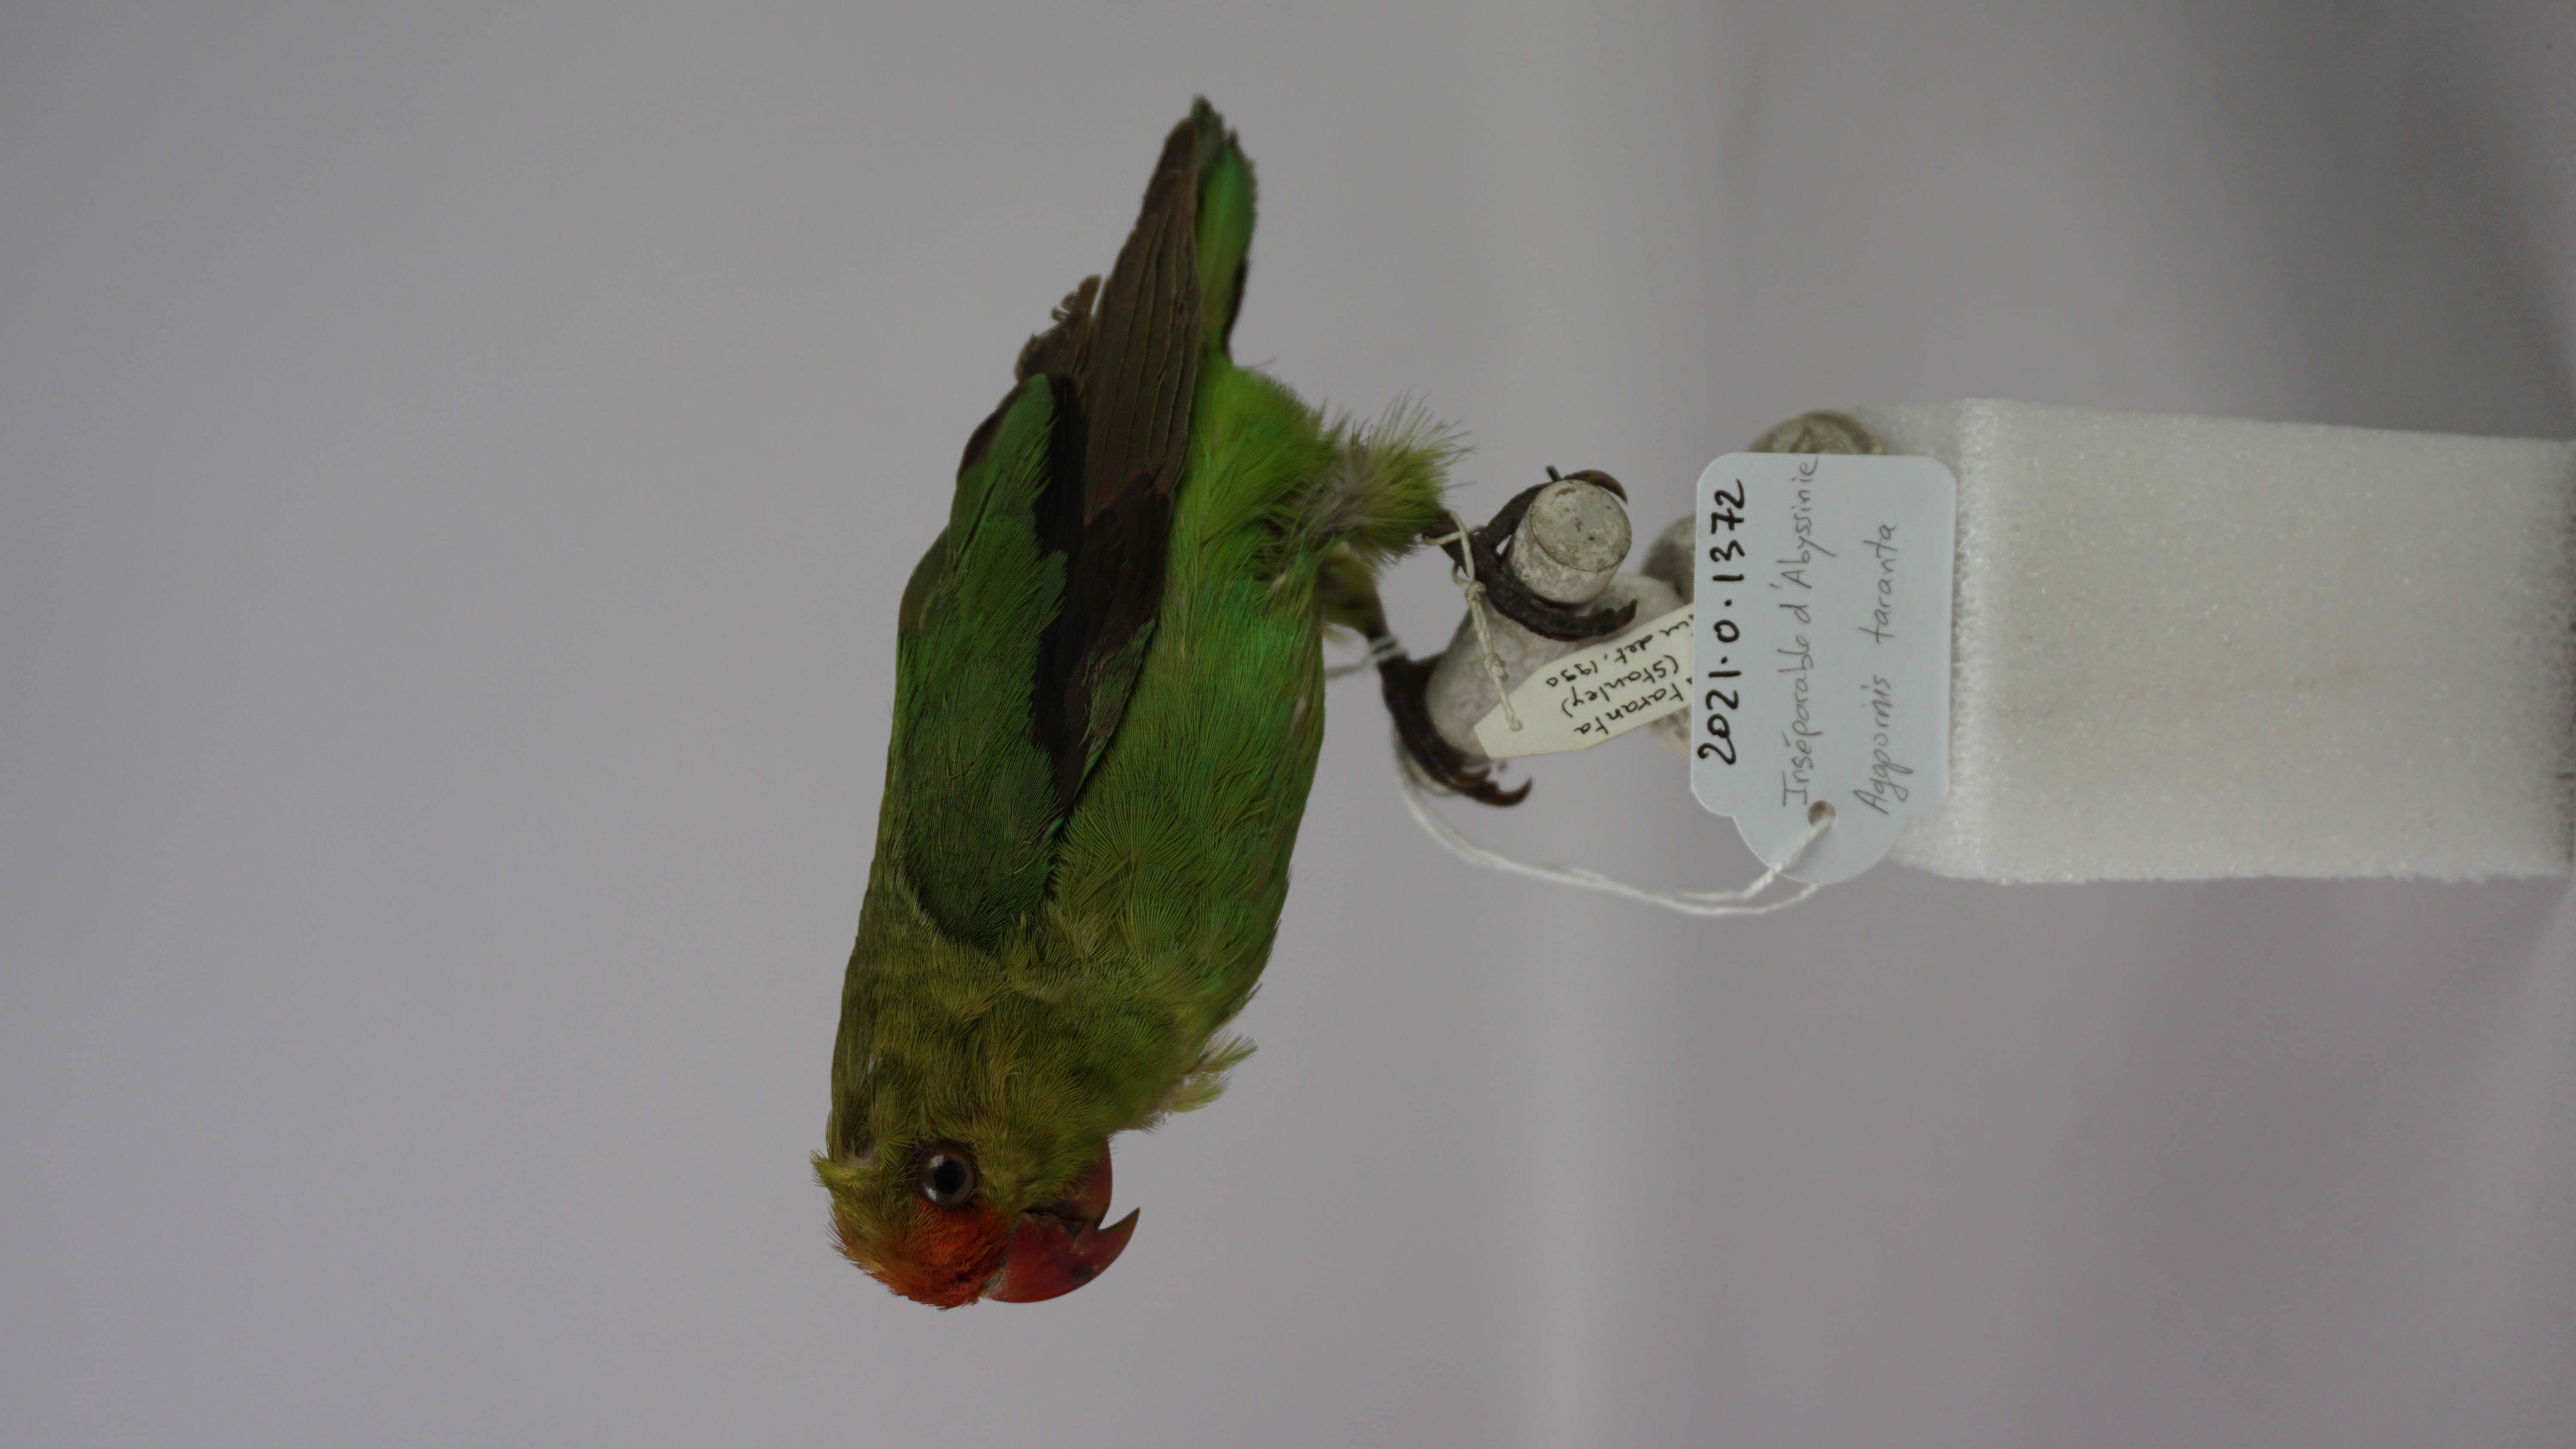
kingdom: Animalia
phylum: Chordata
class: Aves
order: Psittaciformes
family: Psittacidae
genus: Agapornis
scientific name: Agapornis taranta
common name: Black-winged lovebird
